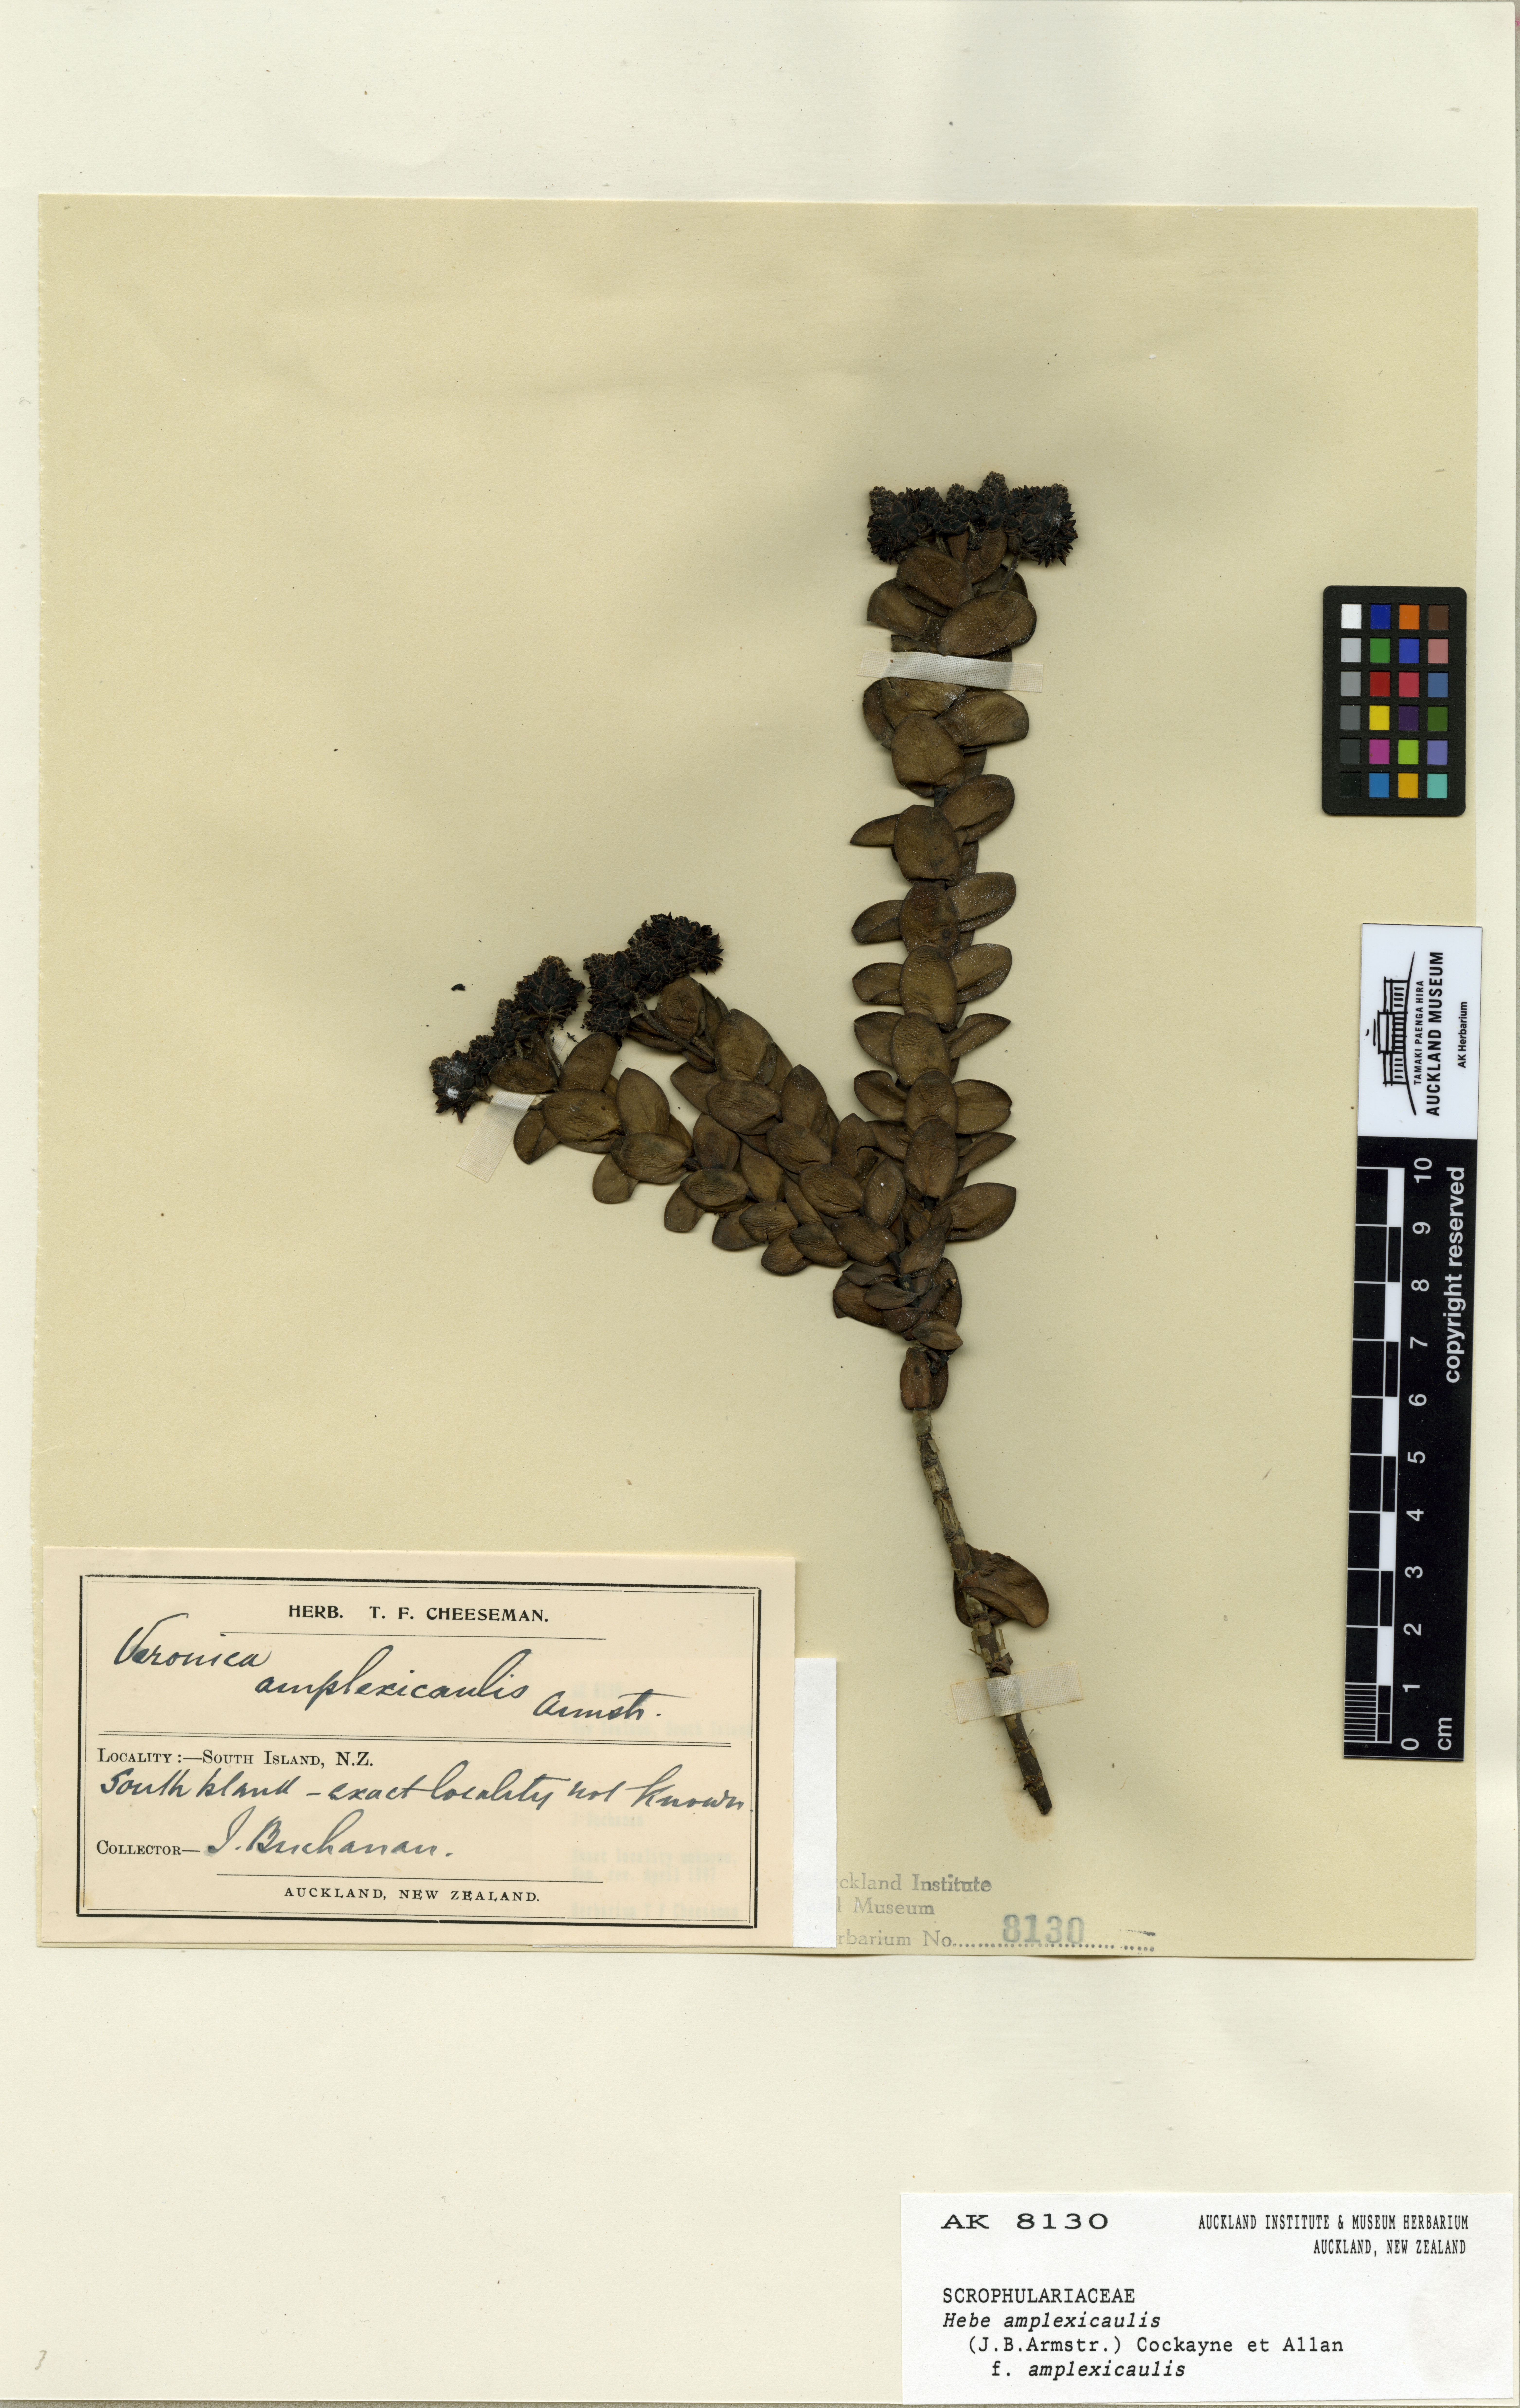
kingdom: Plantae
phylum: Tracheophyta
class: Magnoliopsida
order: Lamiales
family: Plantaginaceae
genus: Veronica
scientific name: Veronica amplexicaulis
